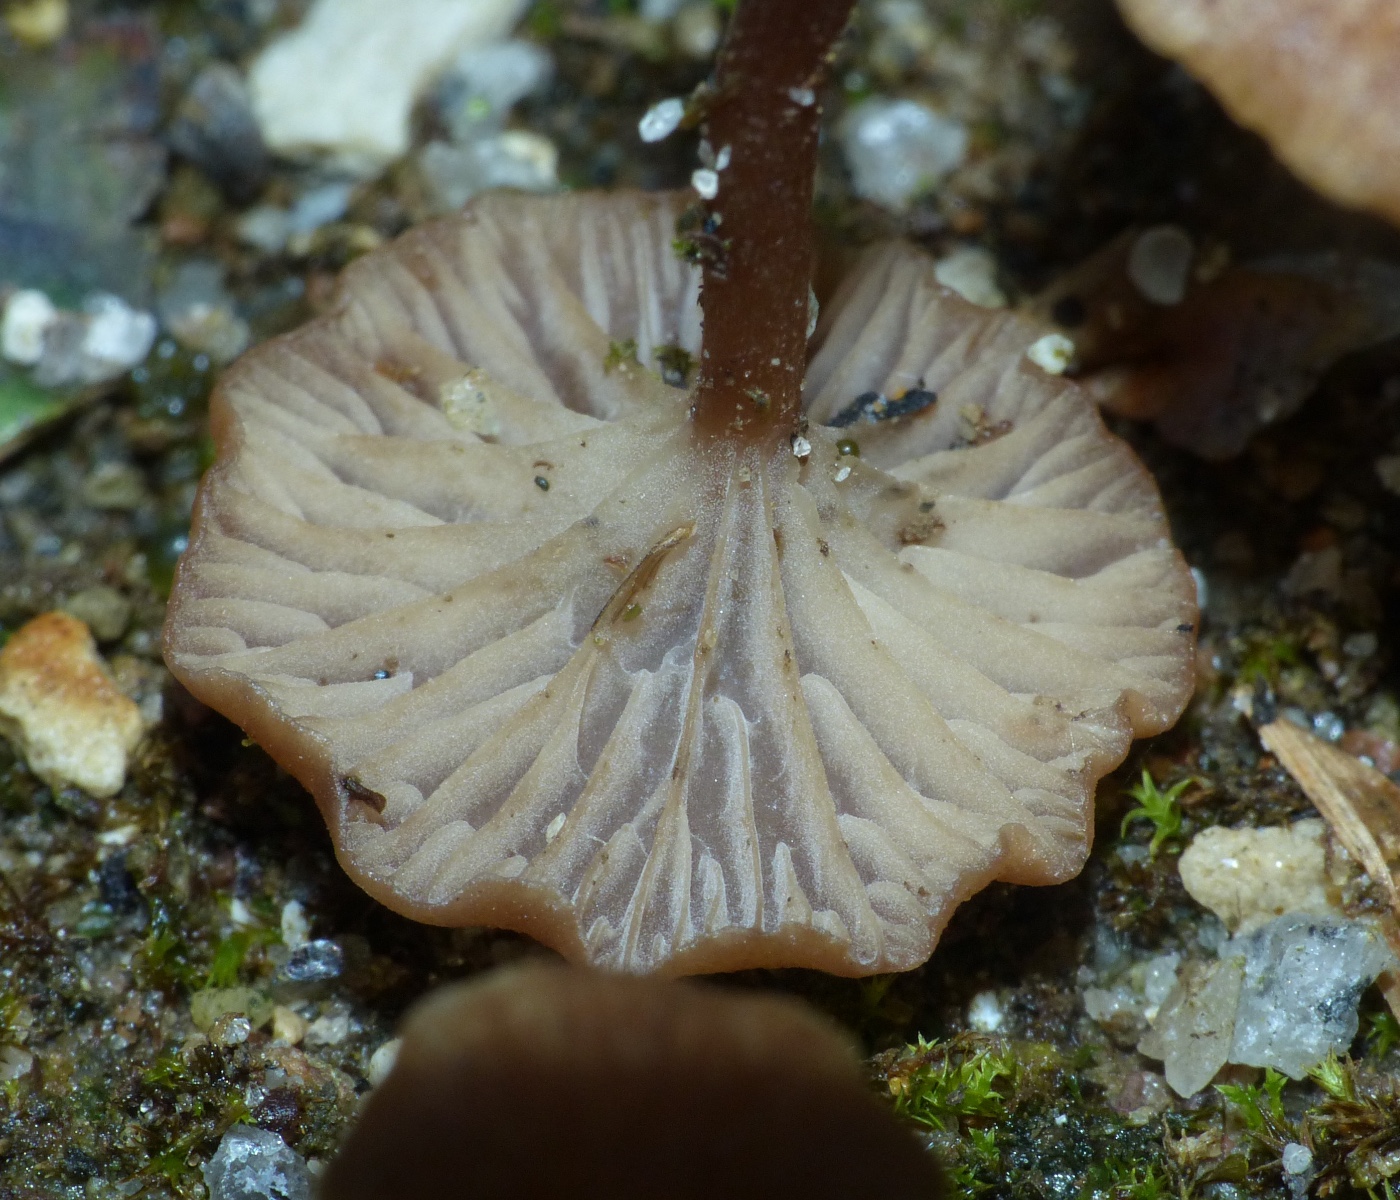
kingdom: Fungi
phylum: Basidiomycota
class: Agaricomycetes
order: Agaricales
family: Tricholomataceae
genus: Omphalina
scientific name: Omphalina pyxidata
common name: rødbrun navlehat
